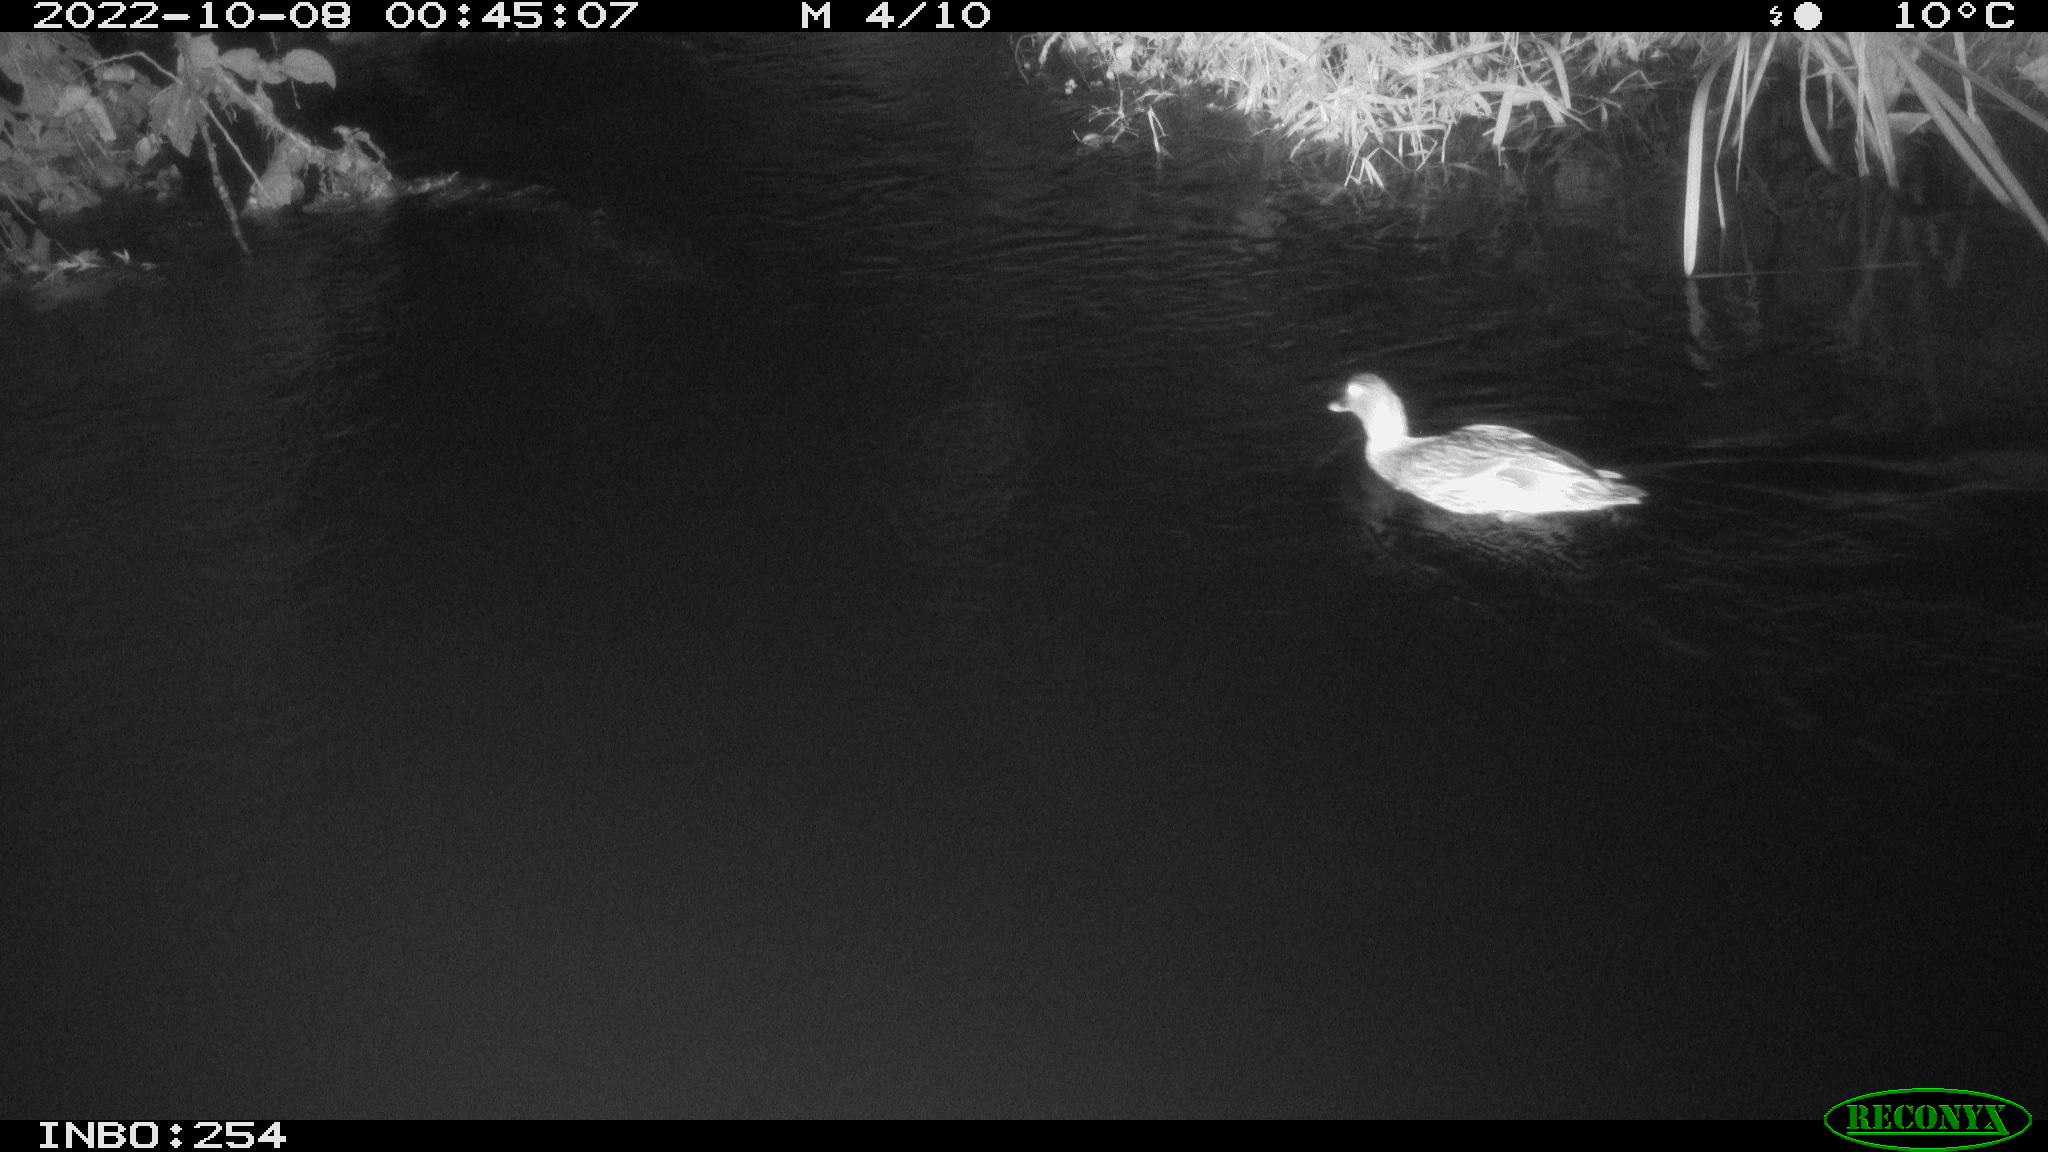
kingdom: Animalia
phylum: Chordata
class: Aves
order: Anseriformes
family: Anatidae
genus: Anas
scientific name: Anas
